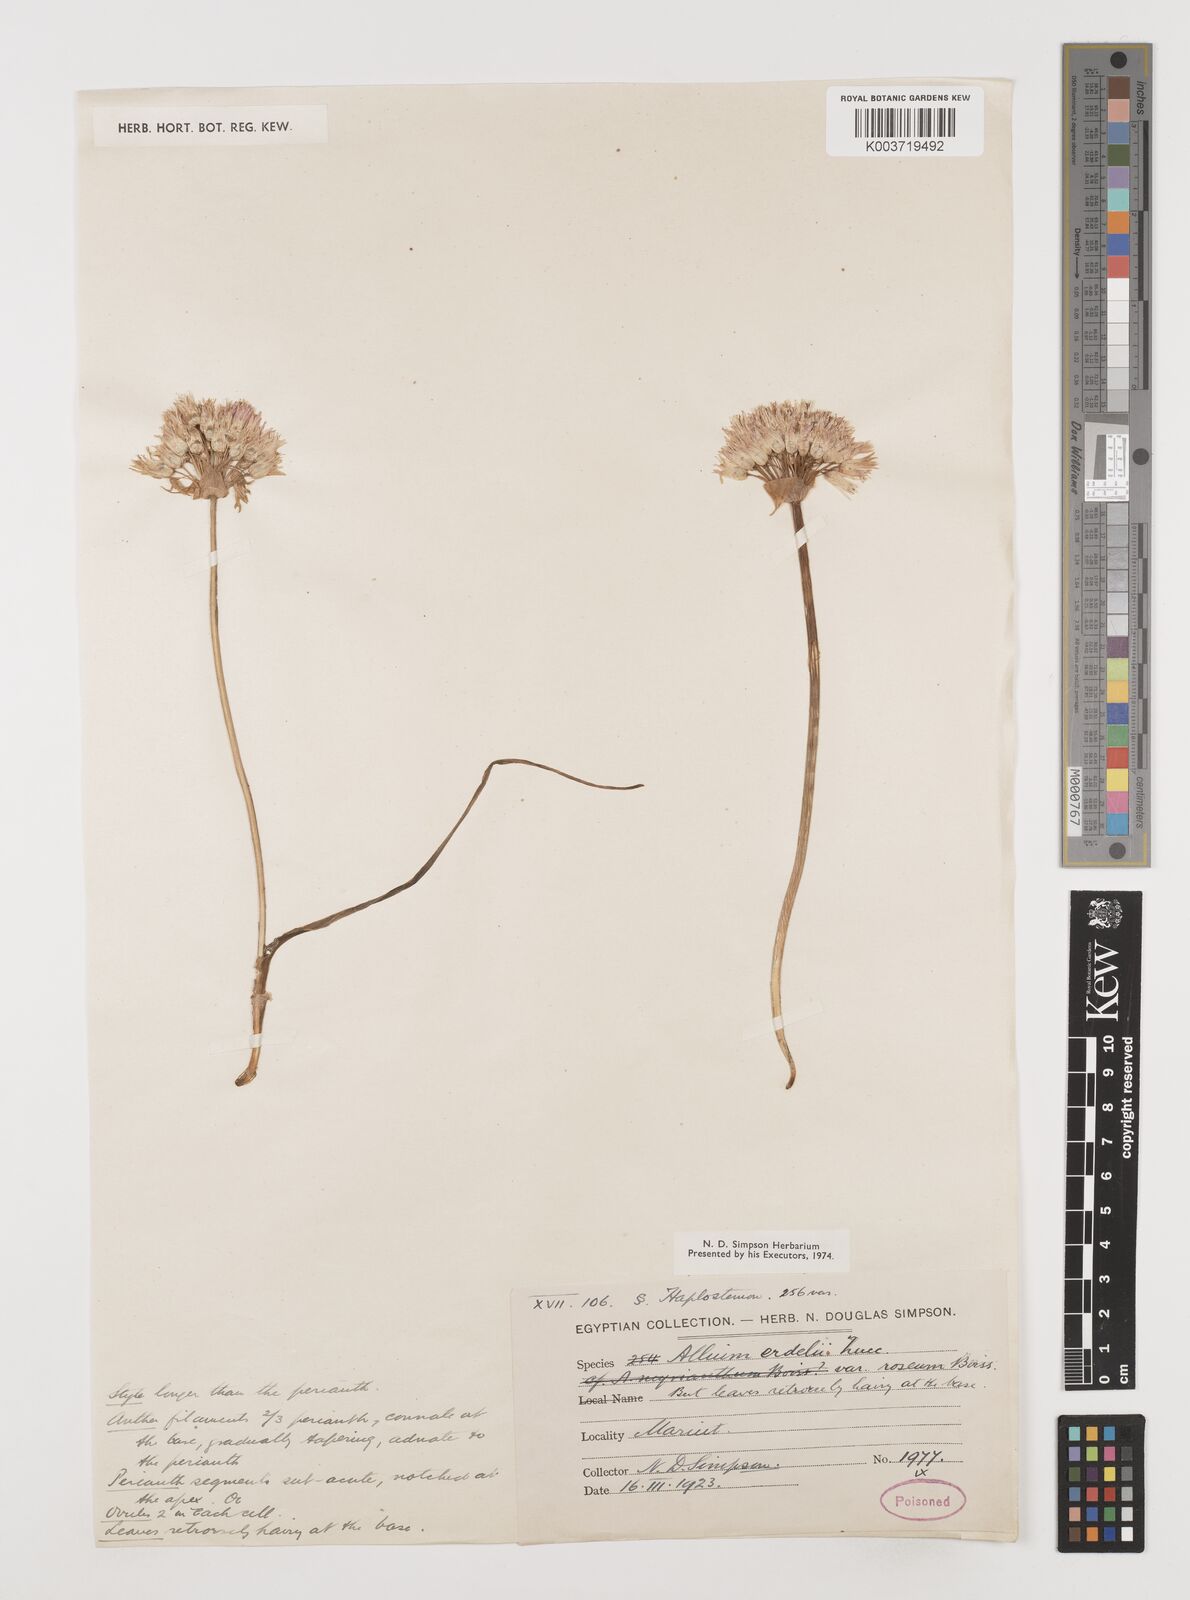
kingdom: Plantae
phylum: Tracheophyta
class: Liliopsida
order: Asparagales
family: Amaryllidaceae
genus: Allium
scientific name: Allium erdelii
